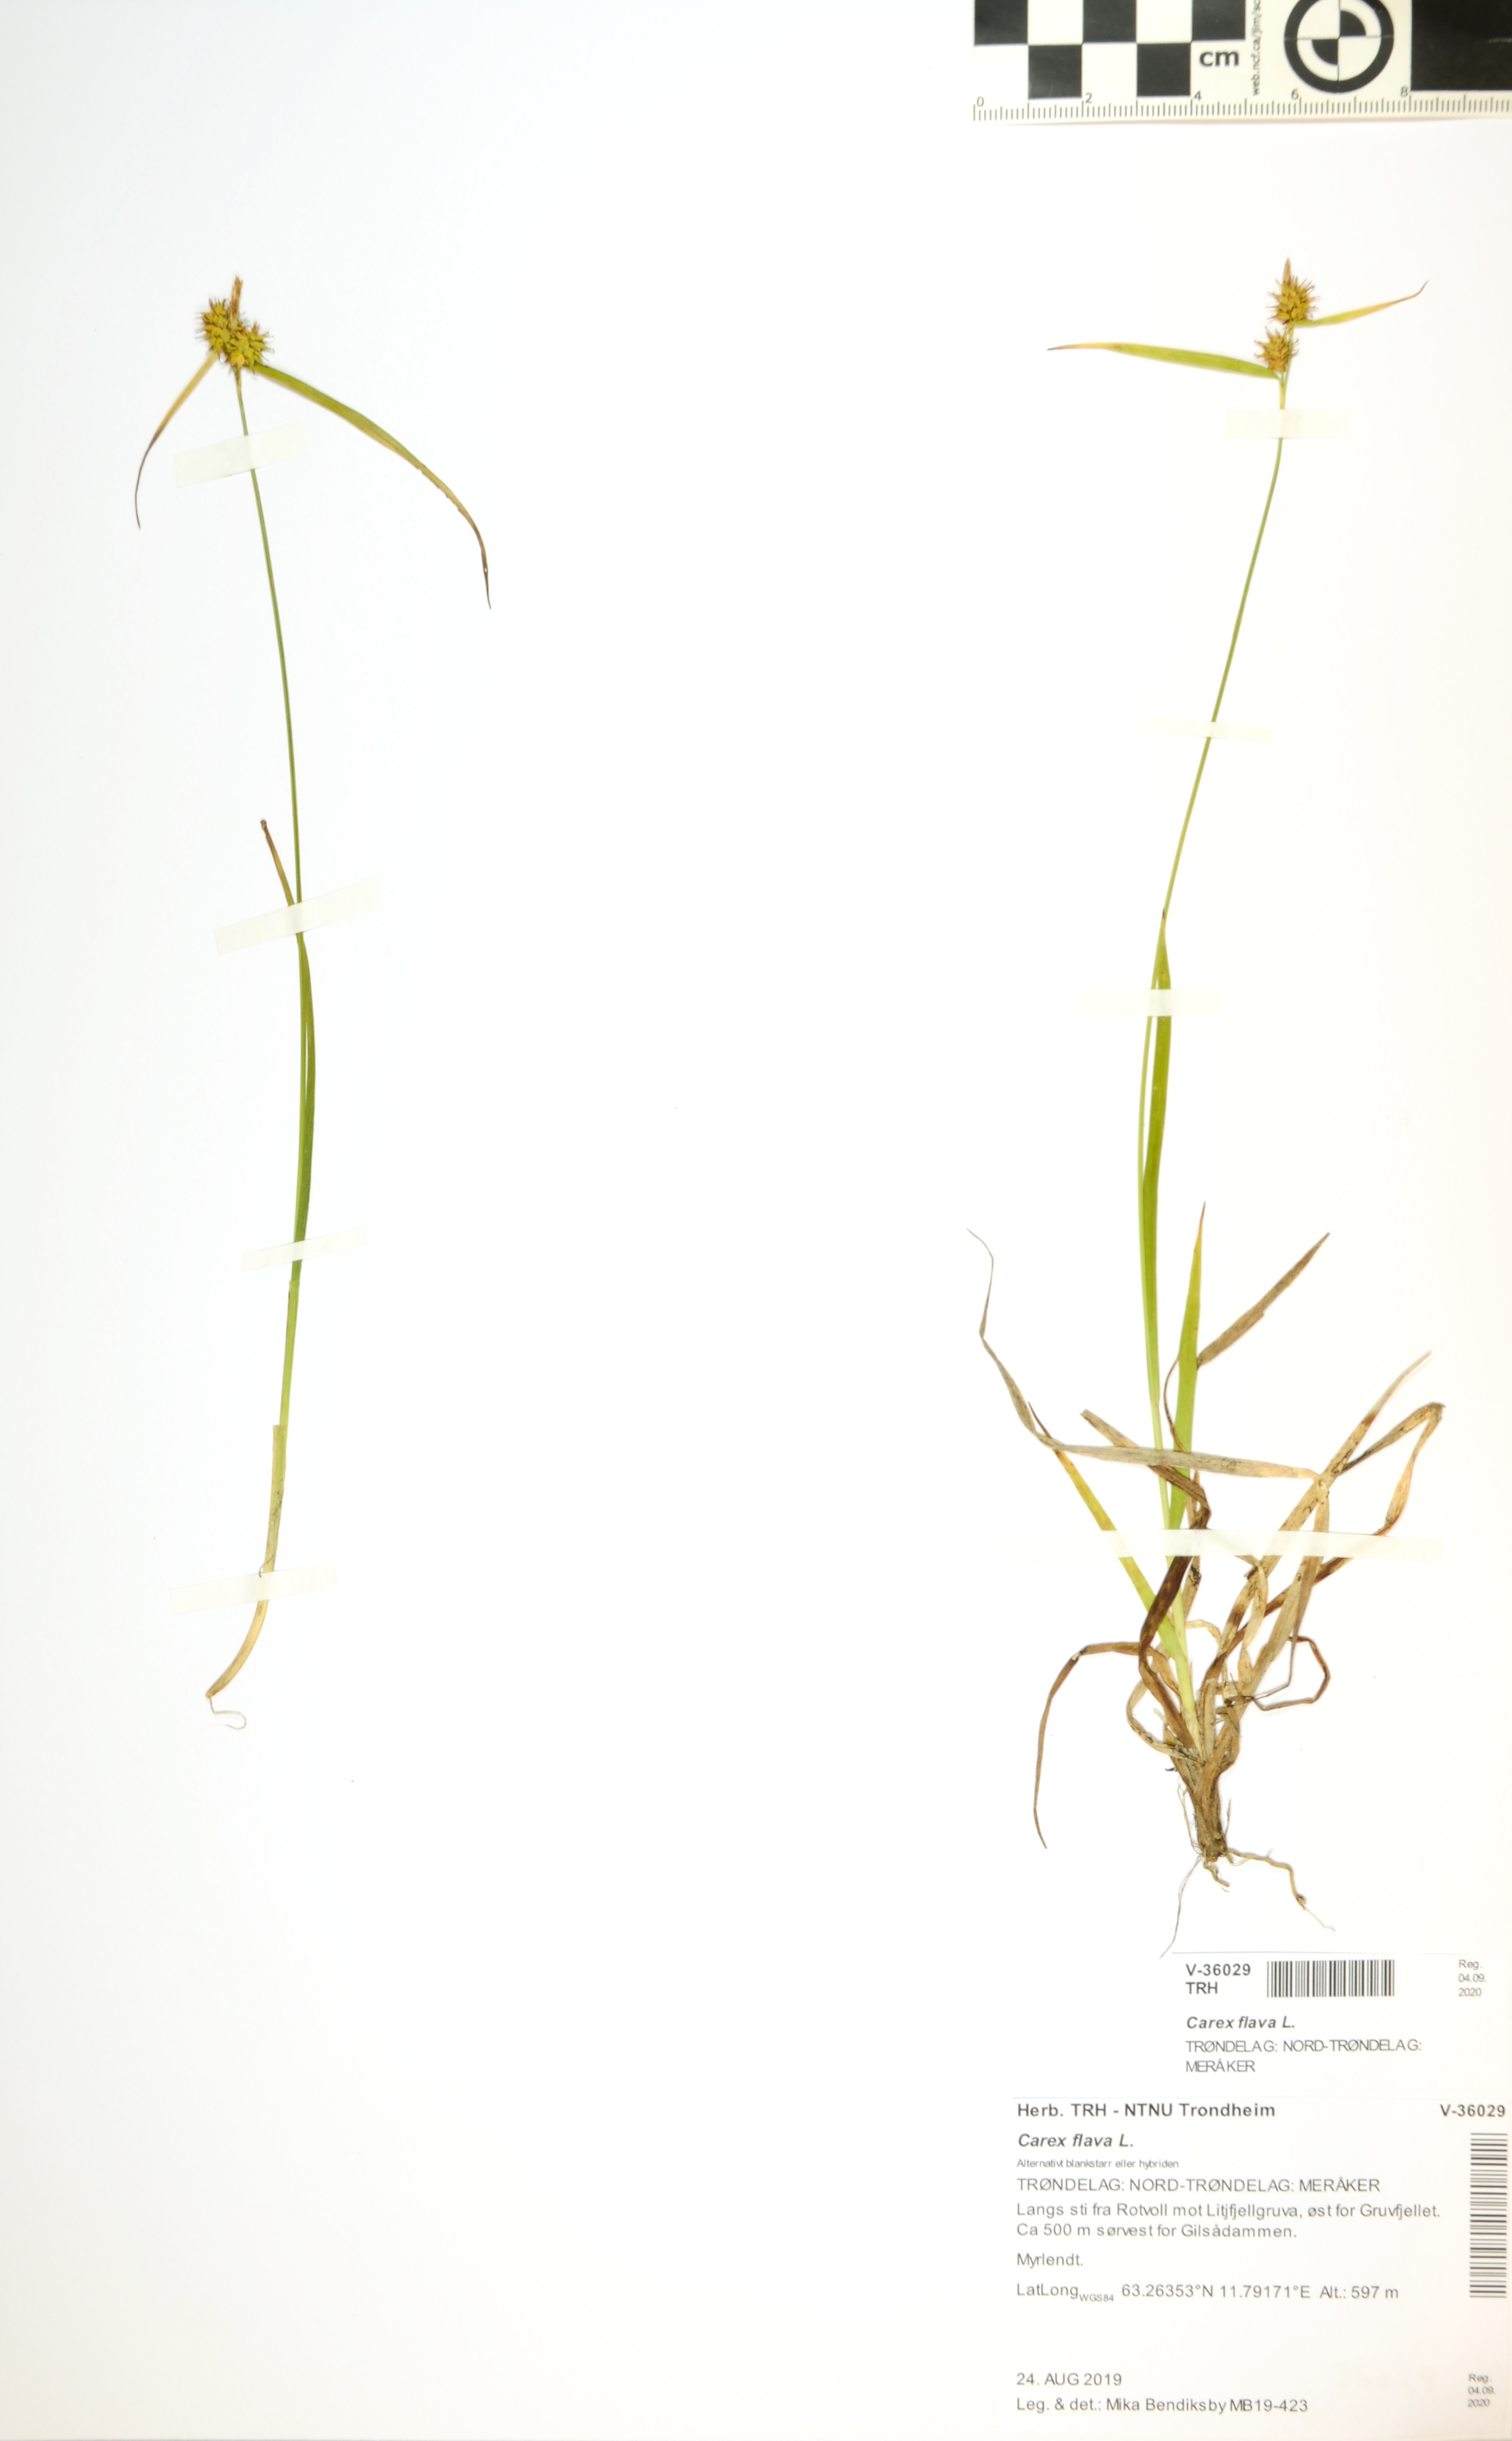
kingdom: Plantae
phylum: Tracheophyta
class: Liliopsida
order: Poales
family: Cyperaceae
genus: Carex
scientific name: Carex flava
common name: Large yellow-sedge
